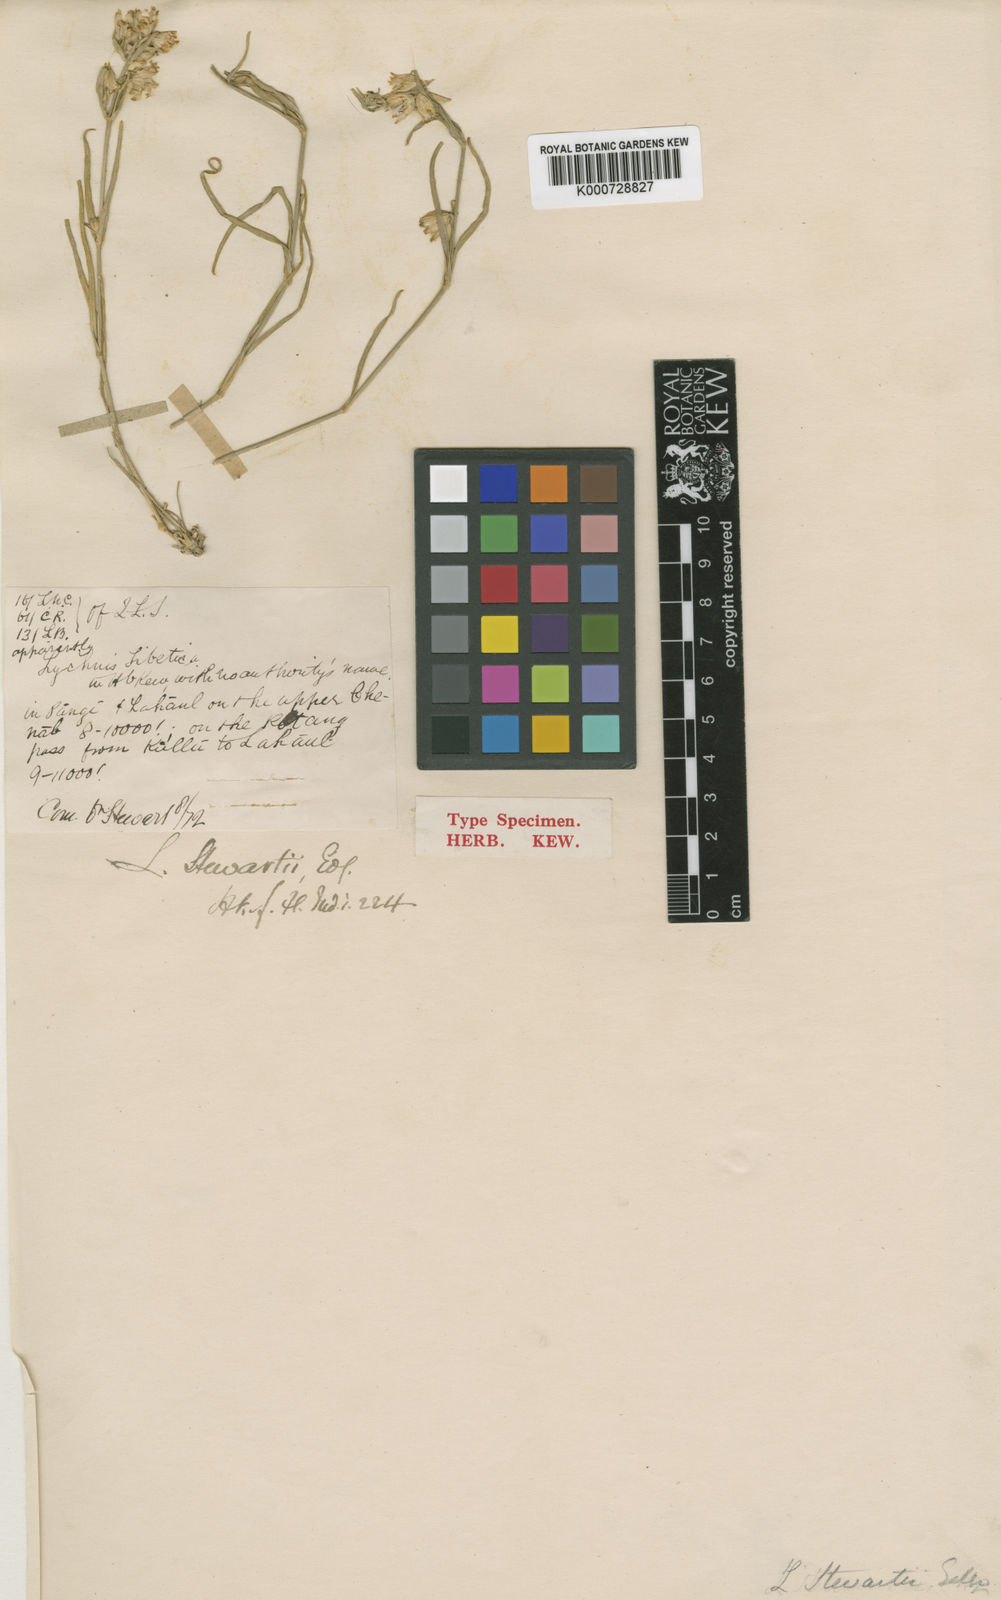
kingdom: Plantae
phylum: Tracheophyta
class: Magnoliopsida
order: Caryophyllales
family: Caryophyllaceae
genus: Silene
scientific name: Silene stewartii
